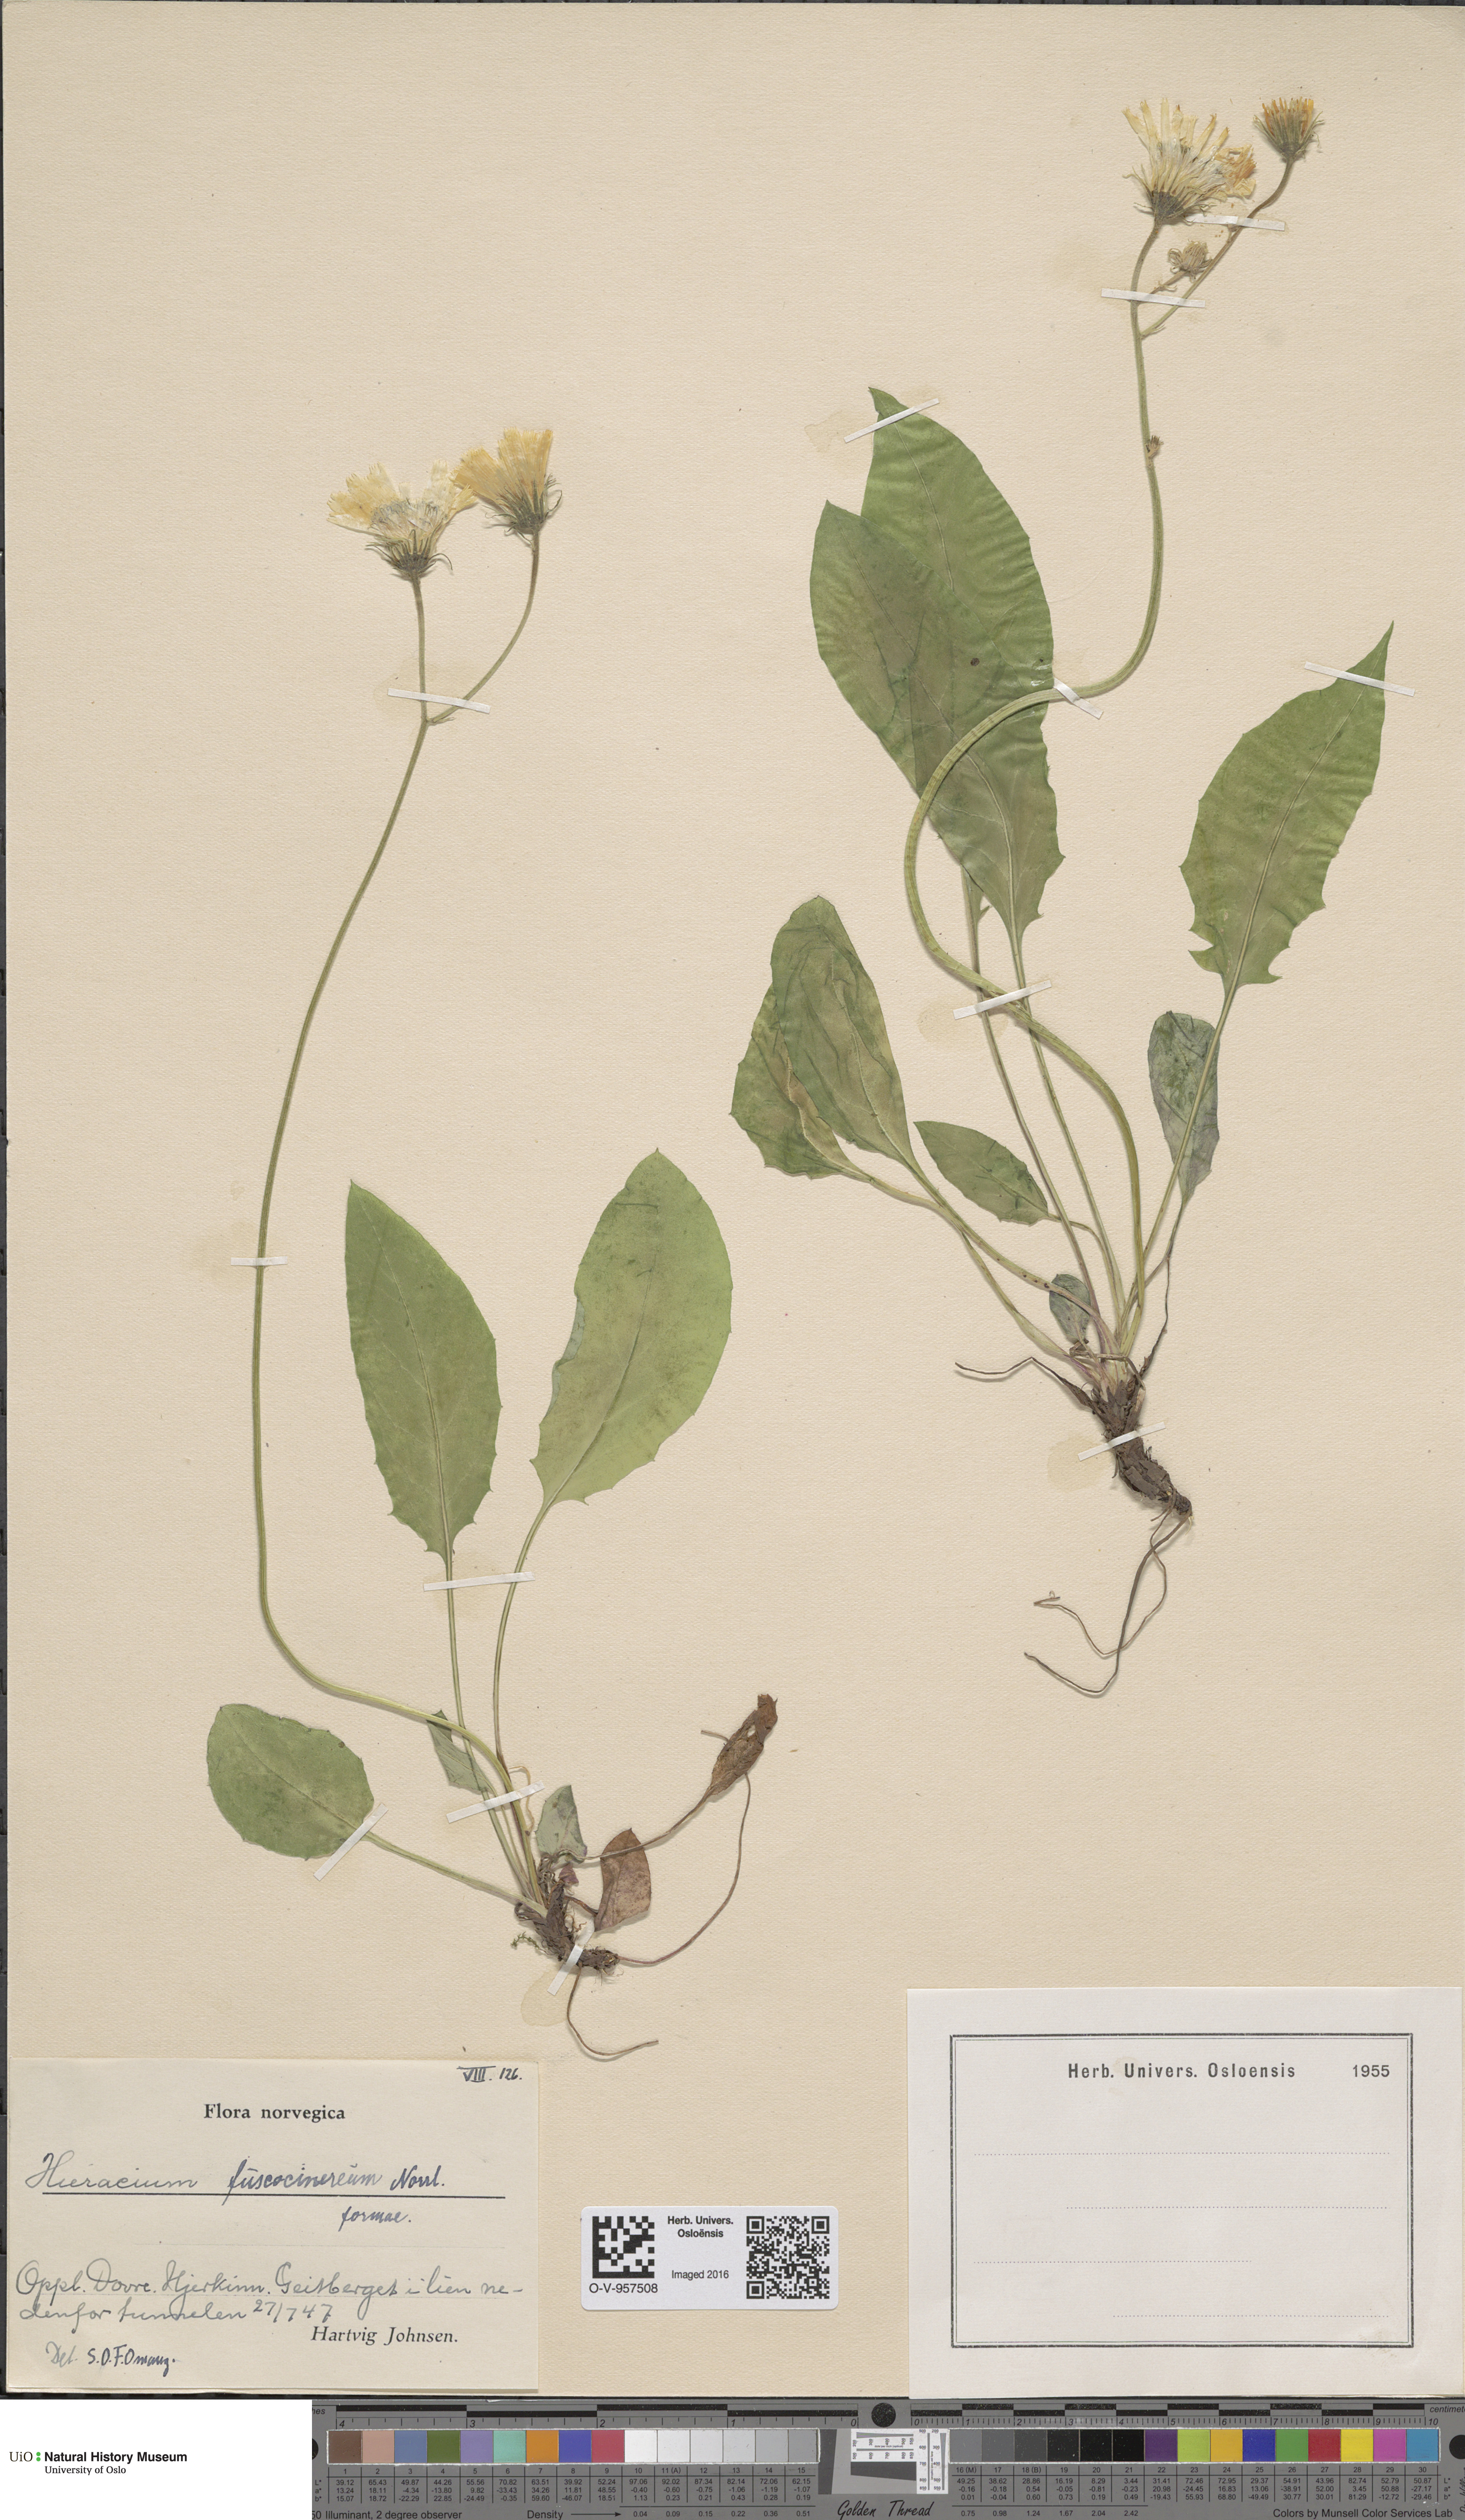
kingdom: Plantae
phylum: Tracheophyta
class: Magnoliopsida
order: Asterales
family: Asteraceae
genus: Hieracium
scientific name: Hieracium fuscocinereum
